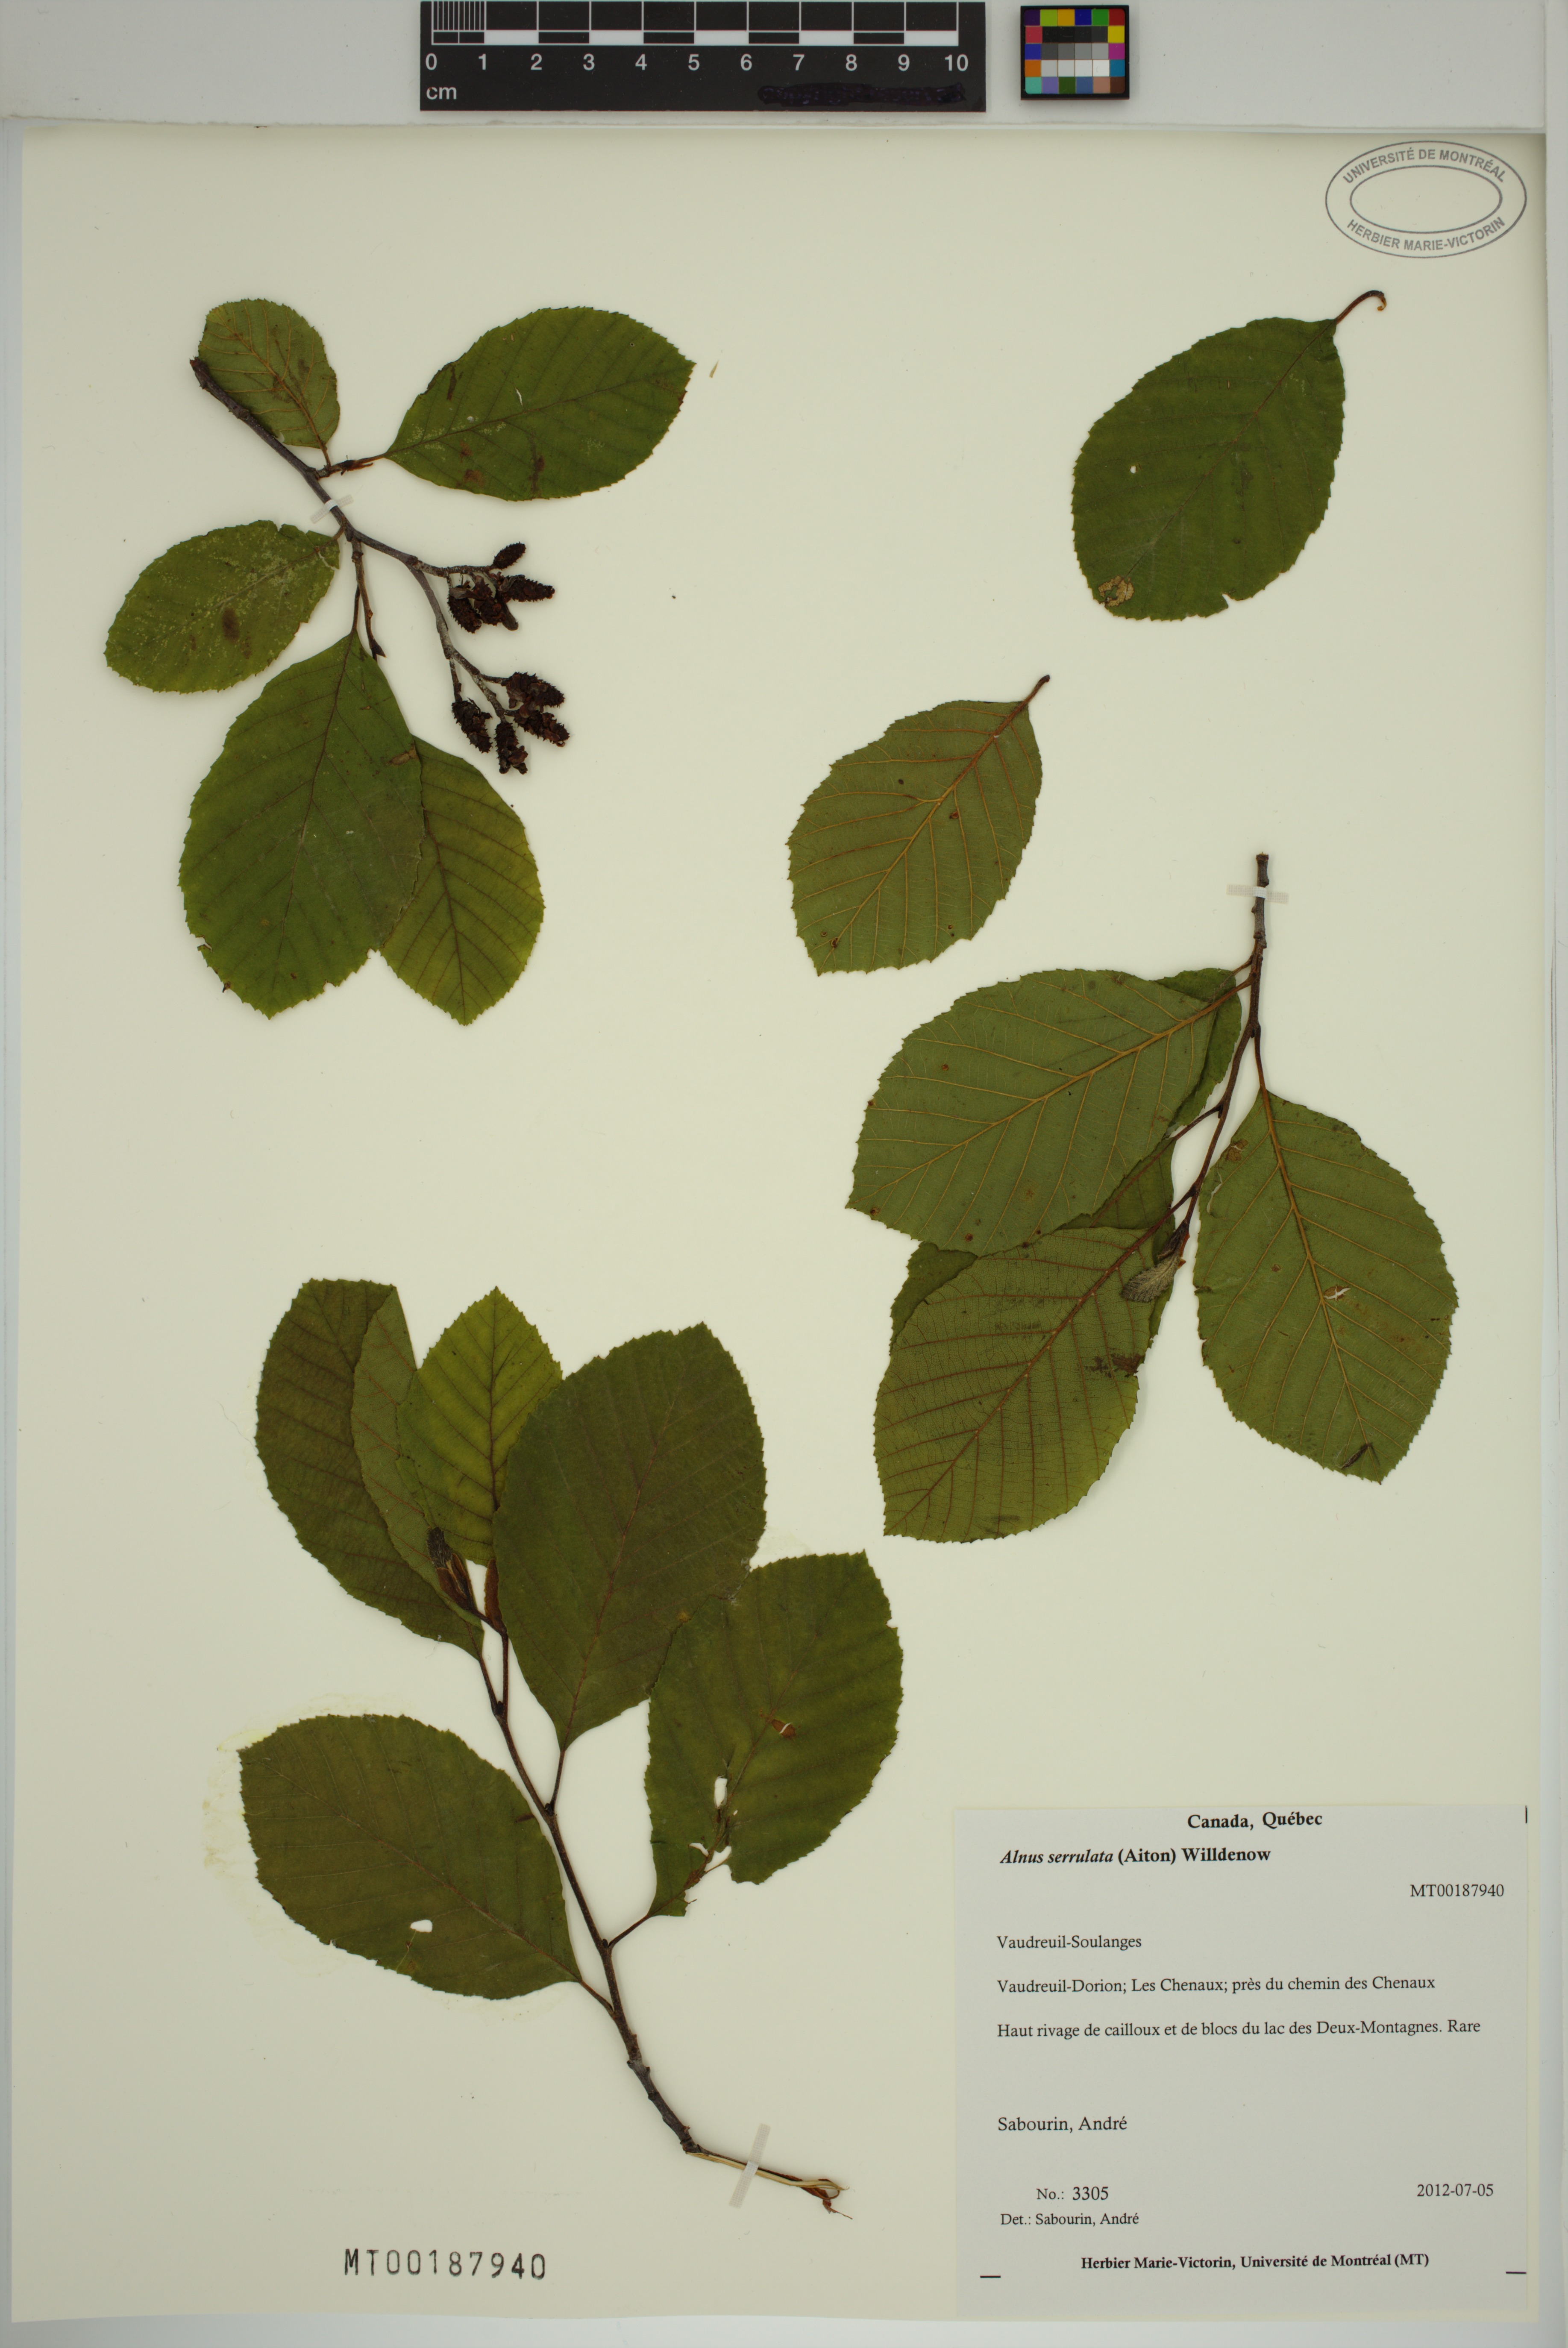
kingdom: Plantae
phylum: Tracheophyta
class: Magnoliopsida
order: Fagales
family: Betulaceae
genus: Alnus
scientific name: Alnus serrulata
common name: Hazel alder
